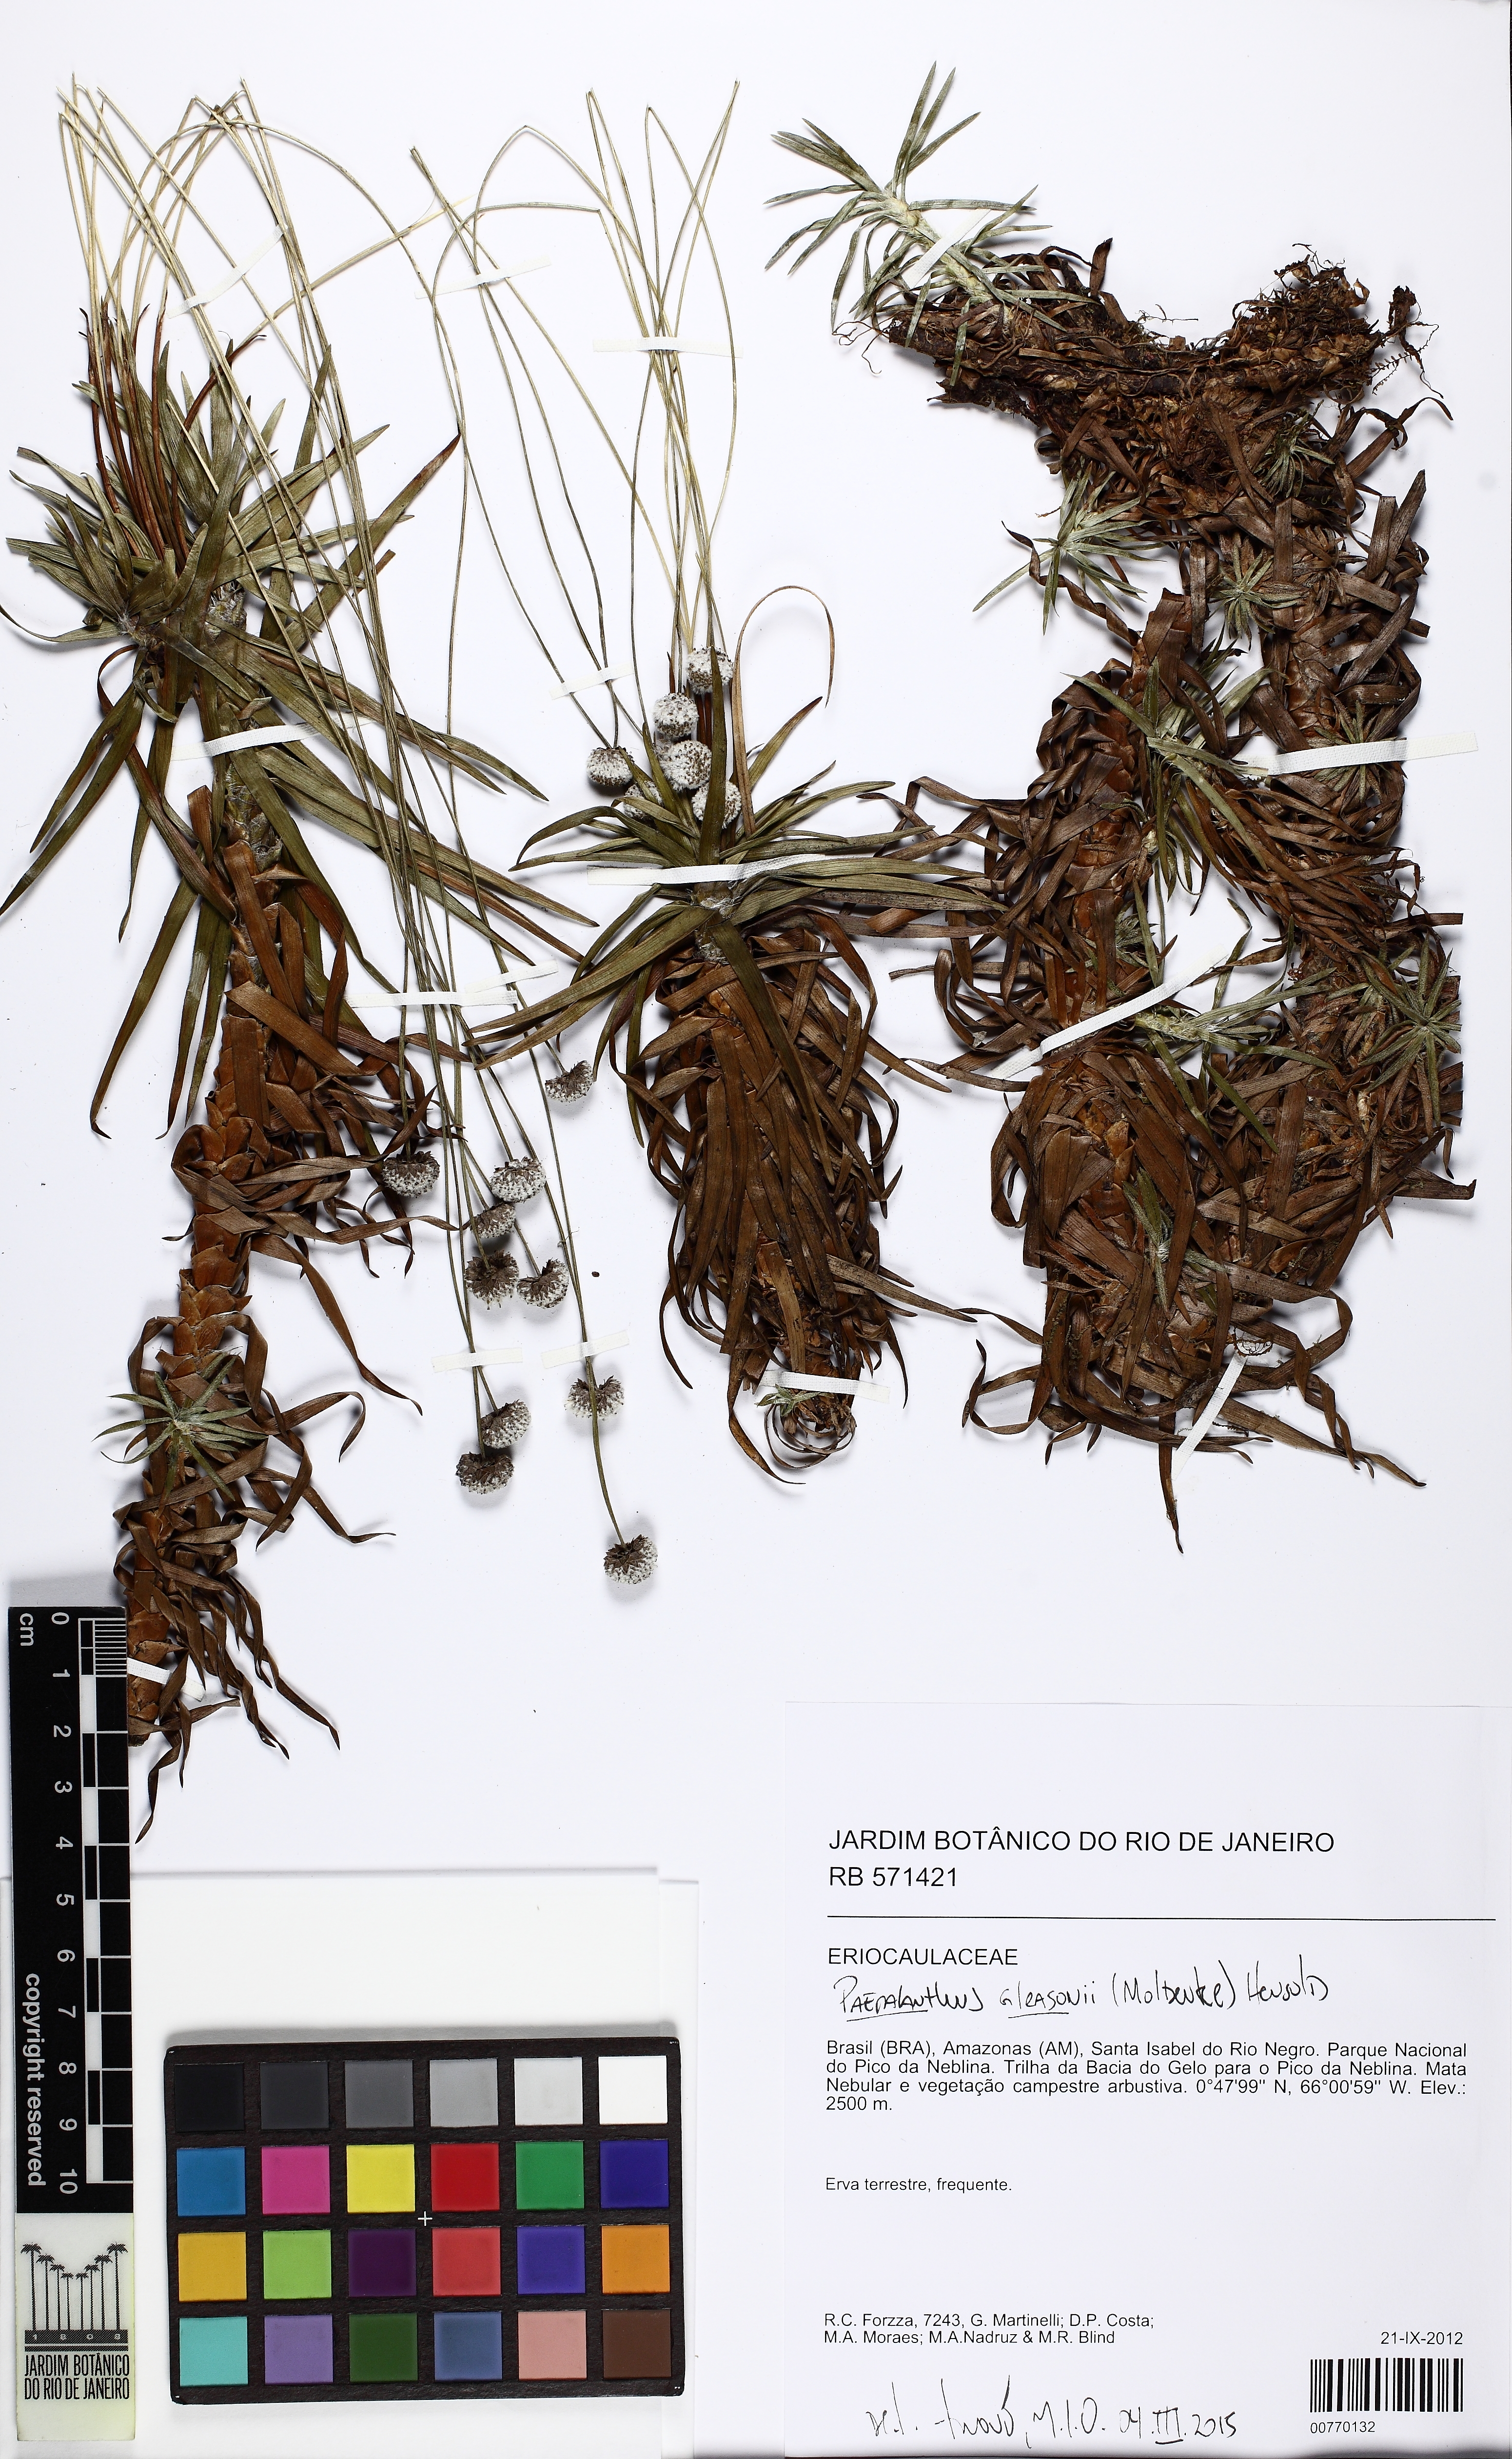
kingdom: Plantae
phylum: Tracheophyta
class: Liliopsida
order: Poales
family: Eriocaulaceae
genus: Paepalanthus
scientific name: Paepalanthus gleasonii
